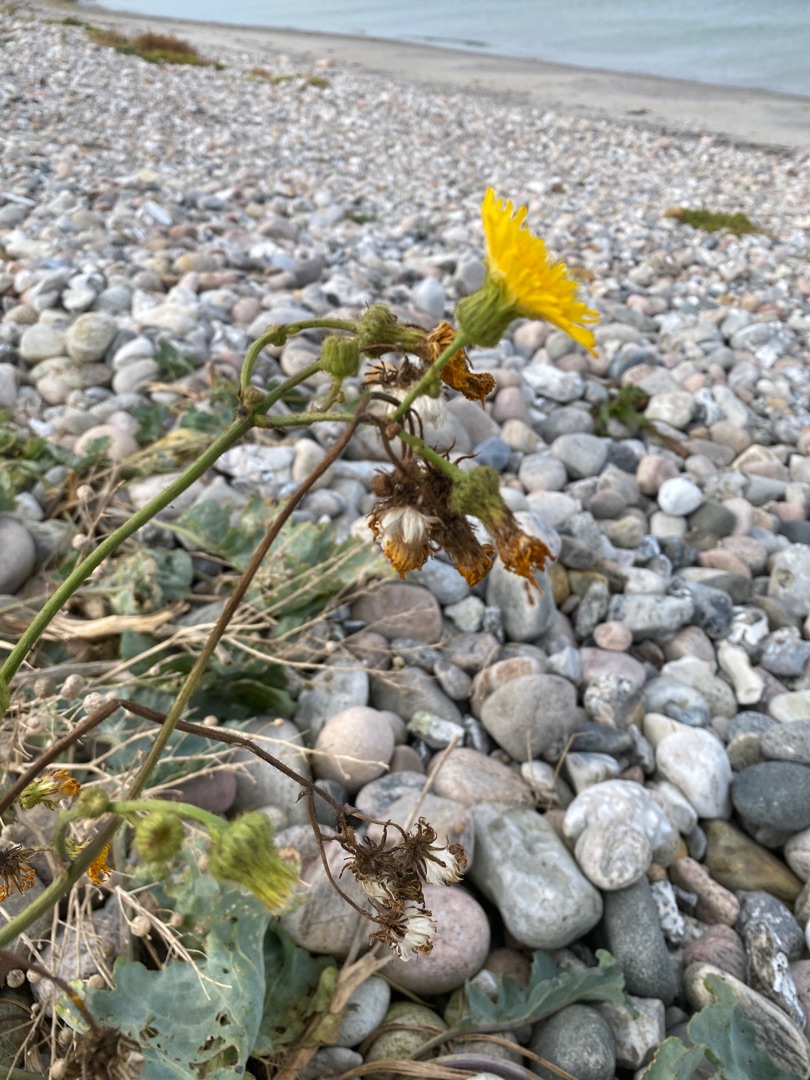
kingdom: Plantae
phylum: Tracheophyta
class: Magnoliopsida
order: Asterales
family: Asteraceae
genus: Sonchus
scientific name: Sonchus arvensis
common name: Ager-svinemælk
